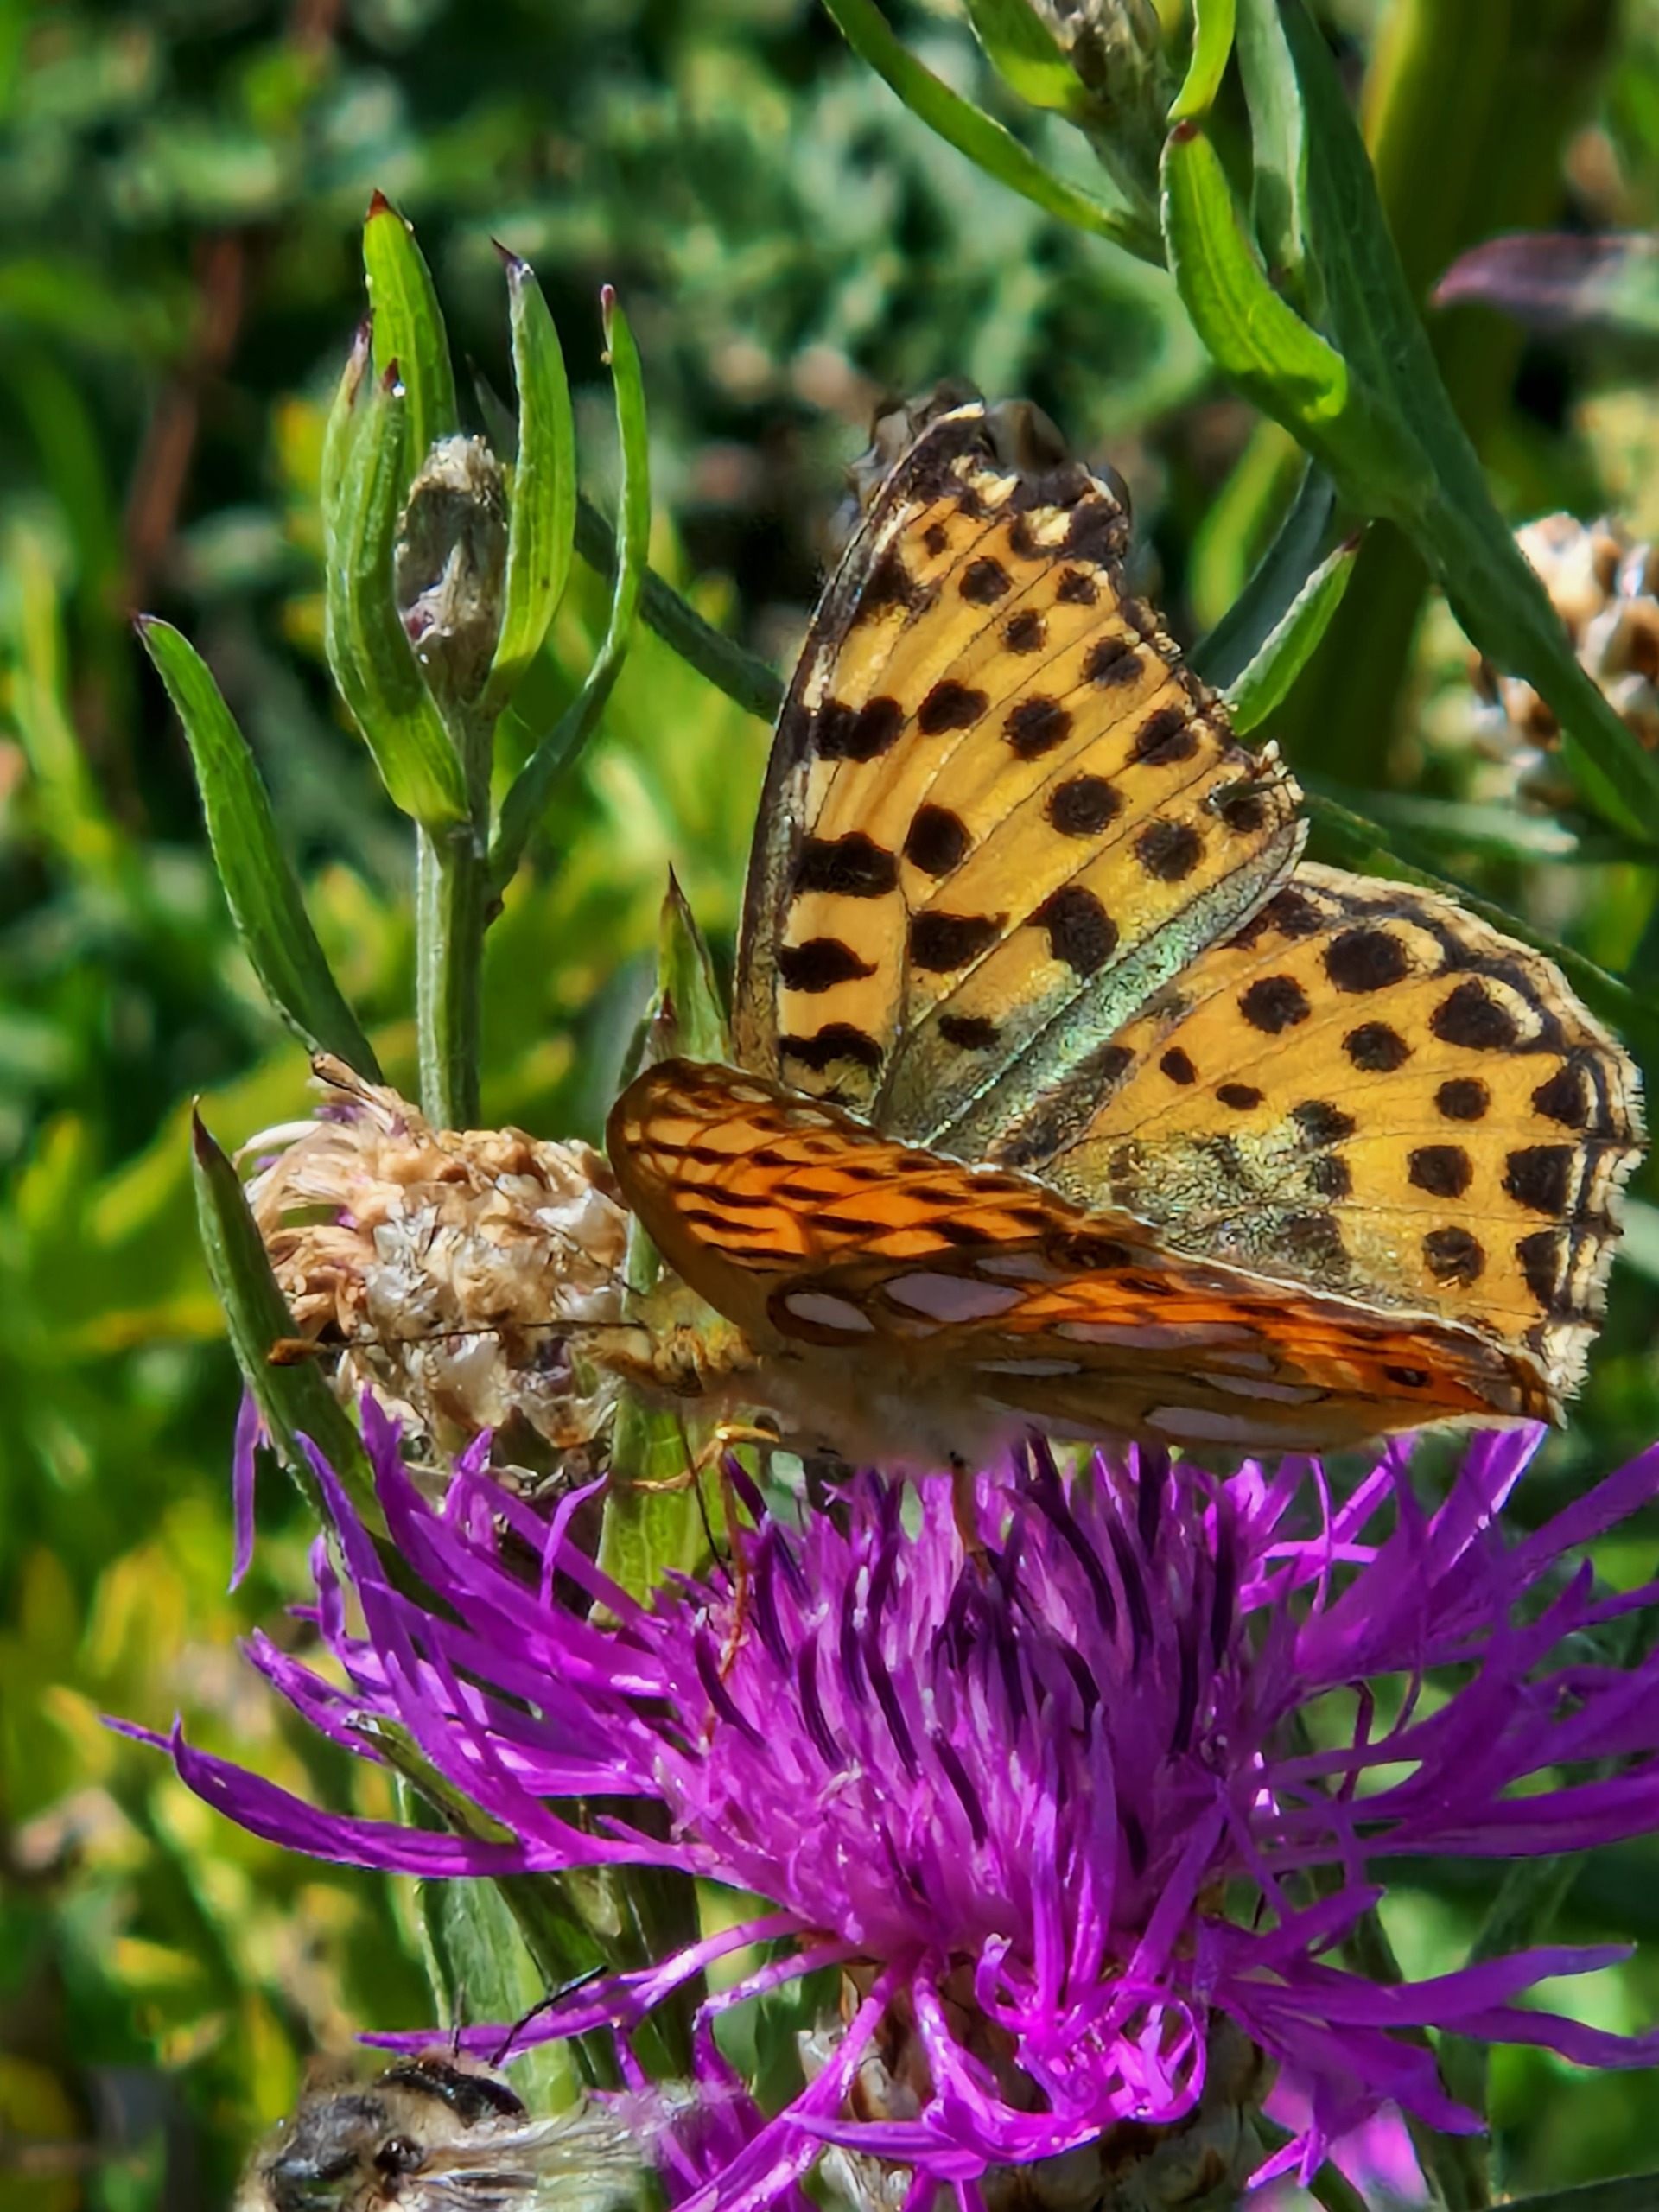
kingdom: Animalia
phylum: Arthropoda
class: Insecta
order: Lepidoptera
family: Nymphalidae
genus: Issoria
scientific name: Issoria lathonia
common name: Storplettet perlemorsommerfugl
